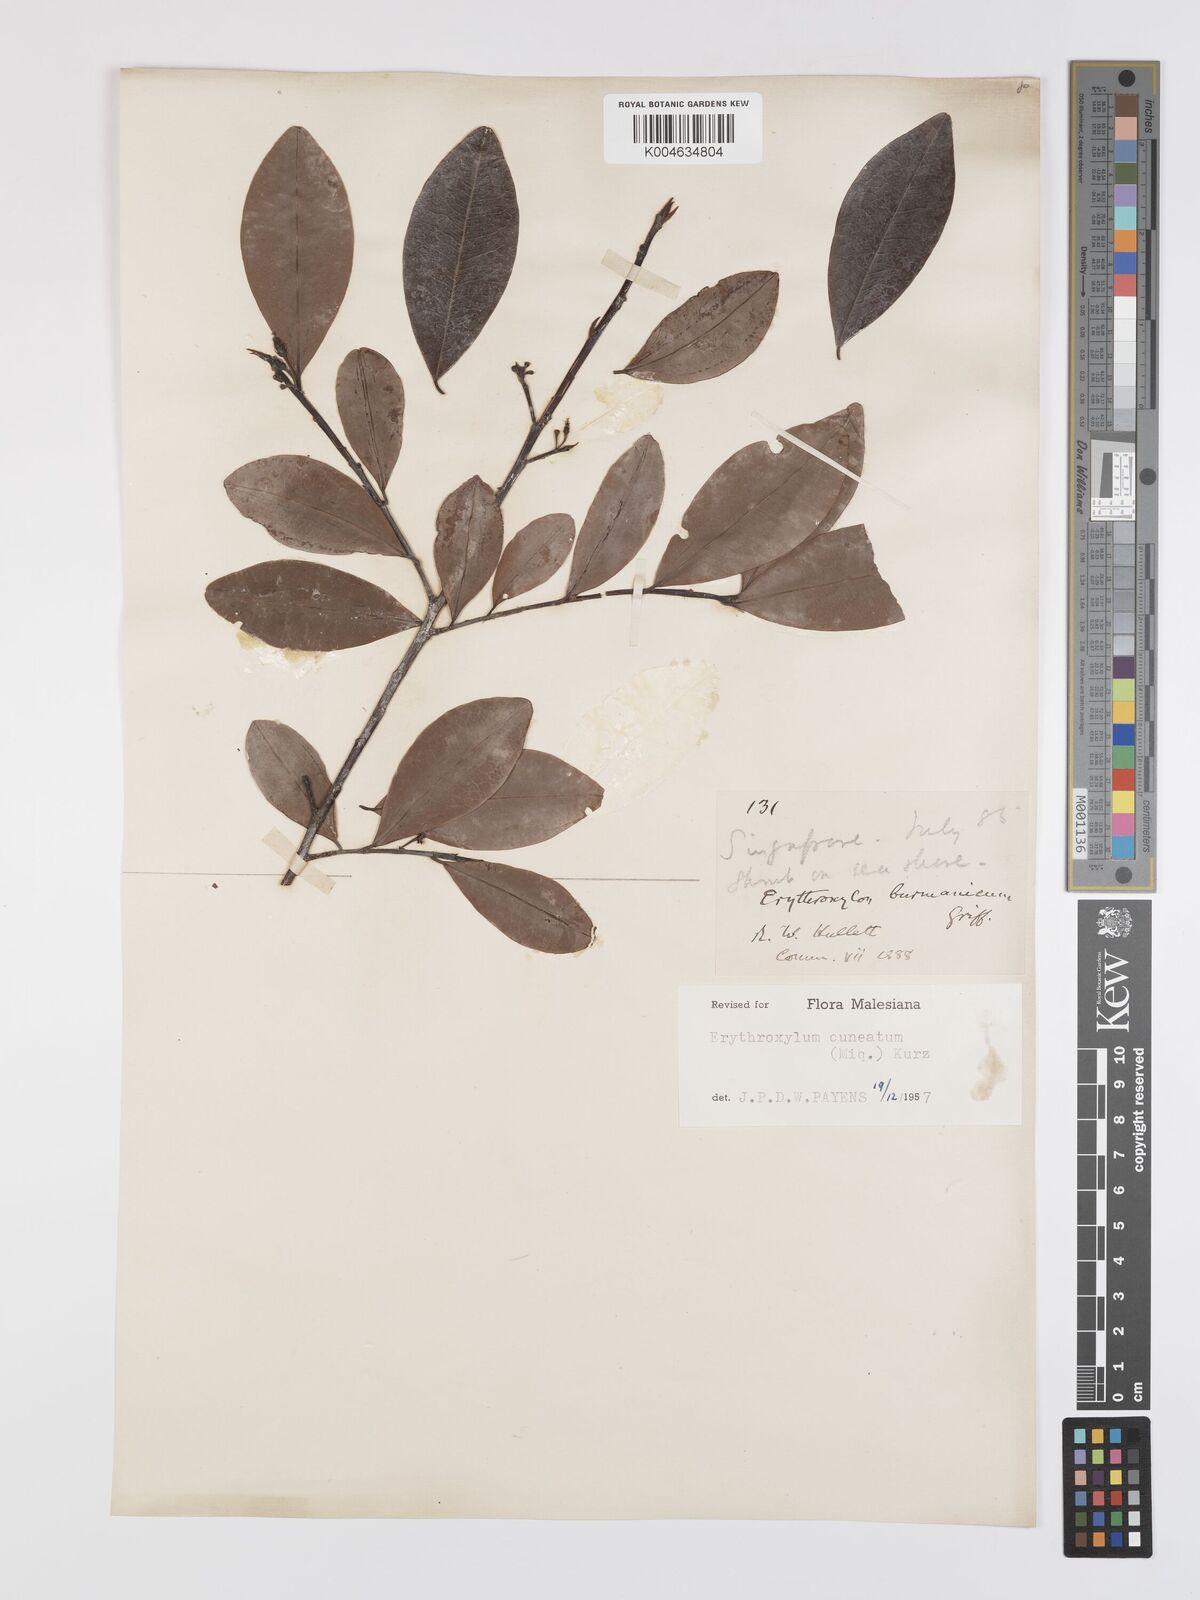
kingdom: Plantae
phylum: Tracheophyta
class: Magnoliopsida
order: Malpighiales
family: Erythroxylaceae
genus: Erythroxylum
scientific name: Erythroxylum cuneatum
